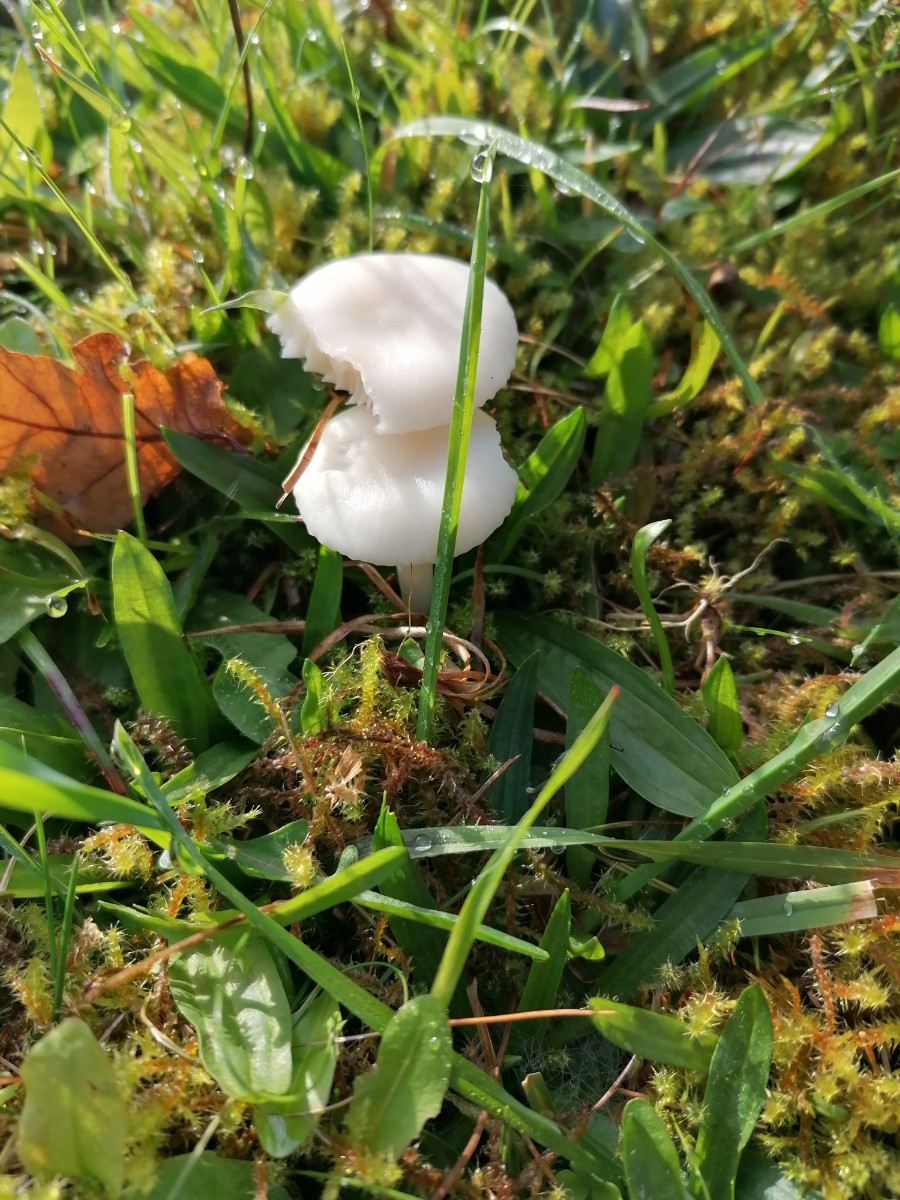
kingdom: Fungi
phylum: Basidiomycota
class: Agaricomycetes
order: Agaricales
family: Hygrophoraceae
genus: Cuphophyllus
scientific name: Cuphophyllus virgineus
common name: snehvid vokshat
